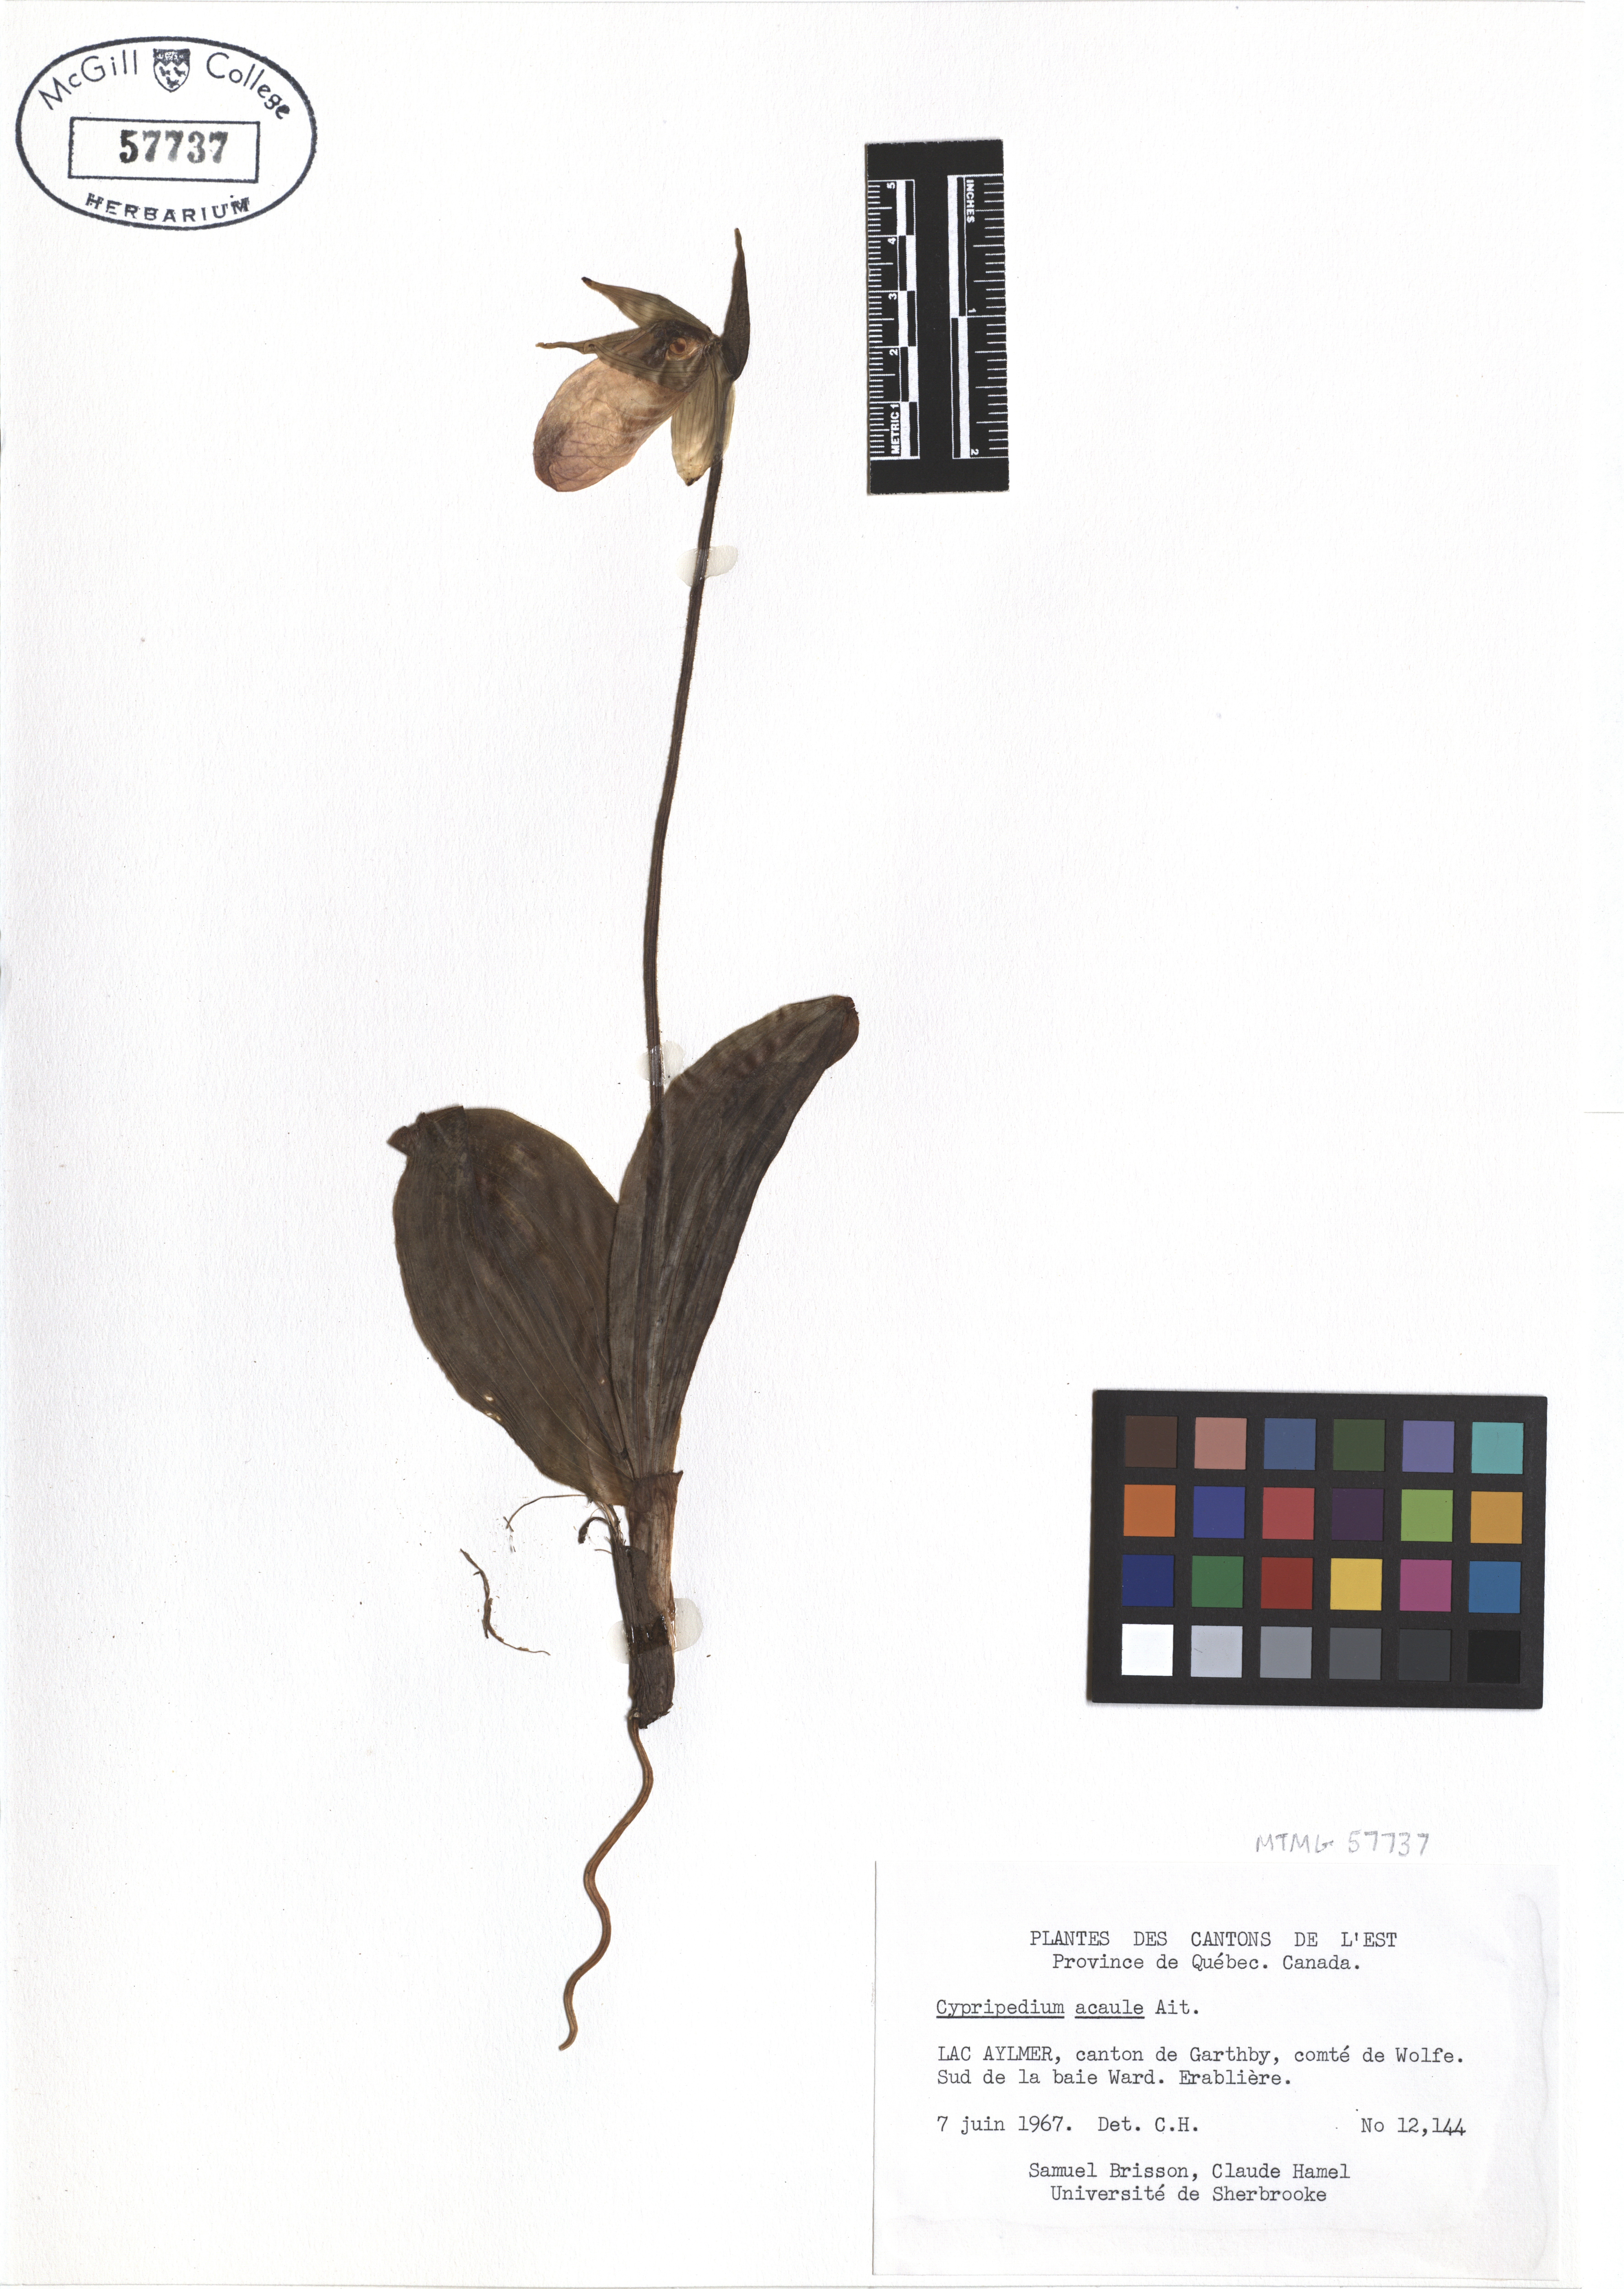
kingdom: Plantae
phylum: Tracheophyta
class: Liliopsida
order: Asparagales
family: Orchidaceae
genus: Cypripedium
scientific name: Cypripedium acaule
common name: Pink lady's-slipper
